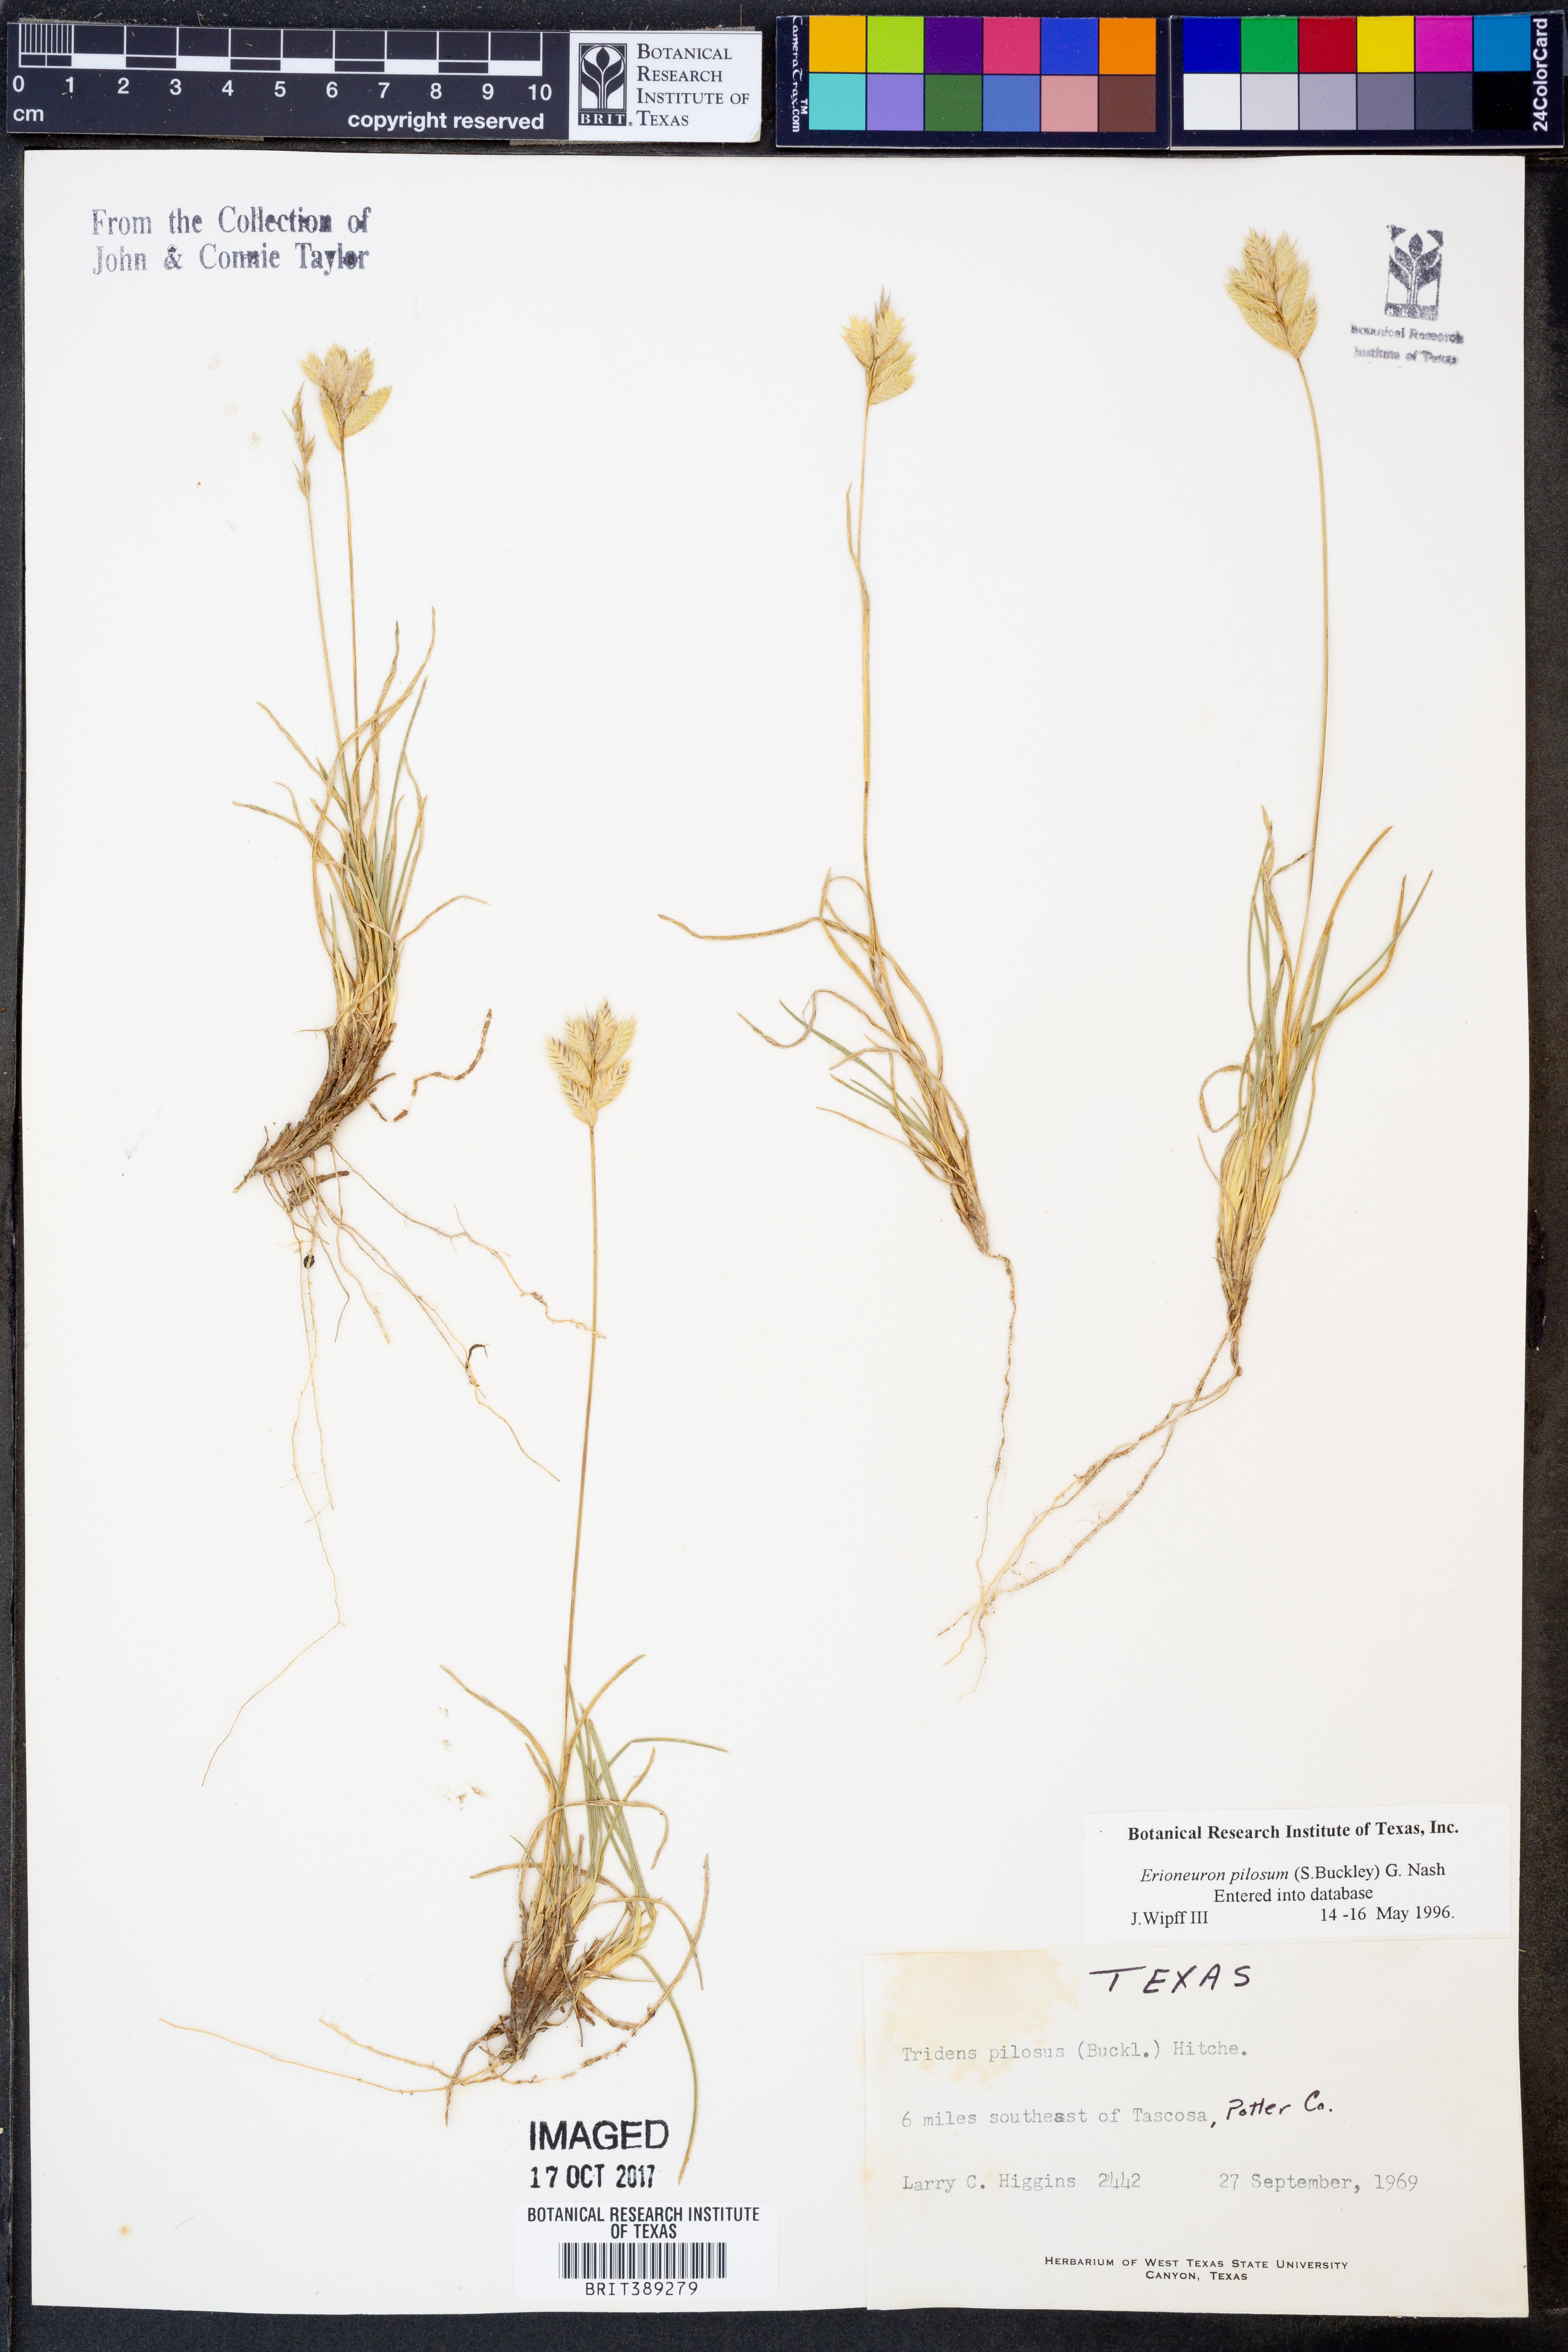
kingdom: Plantae
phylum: Tracheophyta
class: Liliopsida
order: Poales
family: Poaceae
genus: Erioneuron
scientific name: Erioneuron pilosum
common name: Hairy woolly grass
